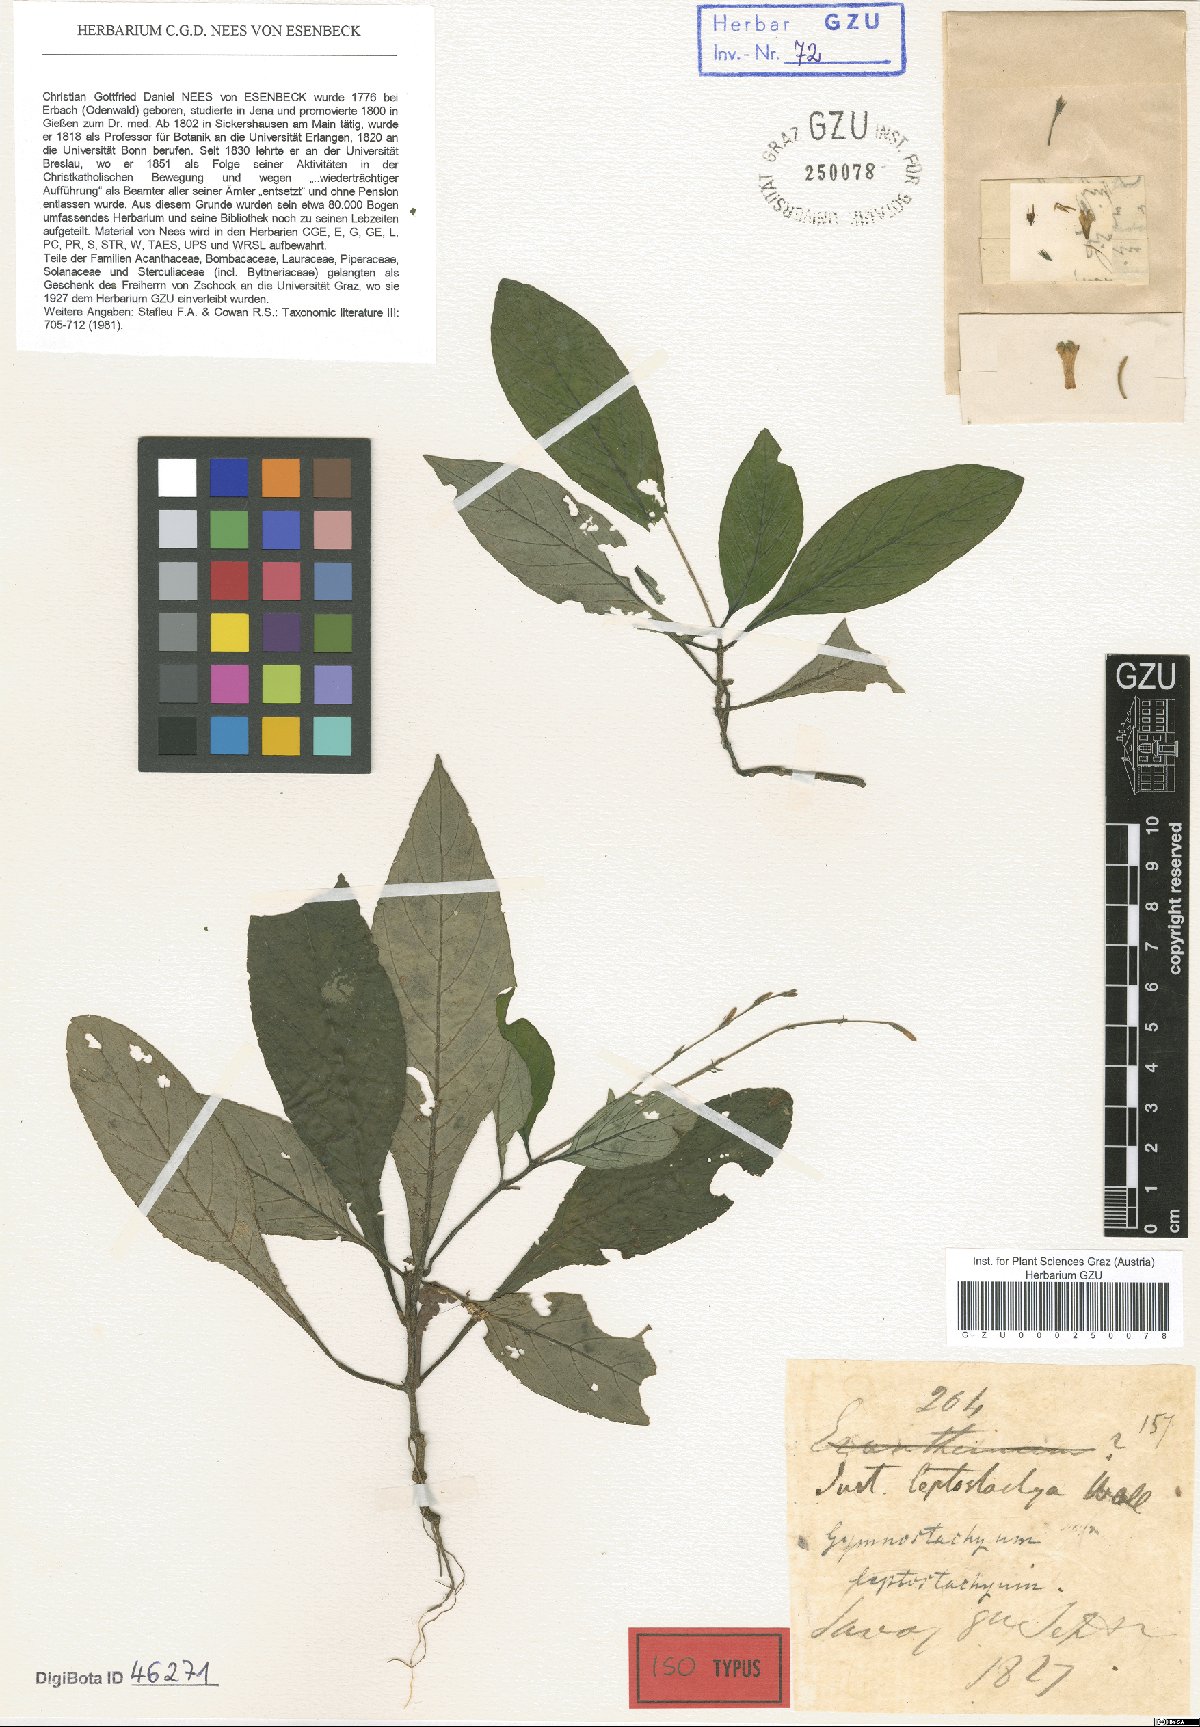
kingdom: Plantae
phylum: Tracheophyta
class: Magnoliopsida
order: Lamiales
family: Acanthaceae
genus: Gymnostachyum
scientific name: Gymnostachyum leptostachyum
